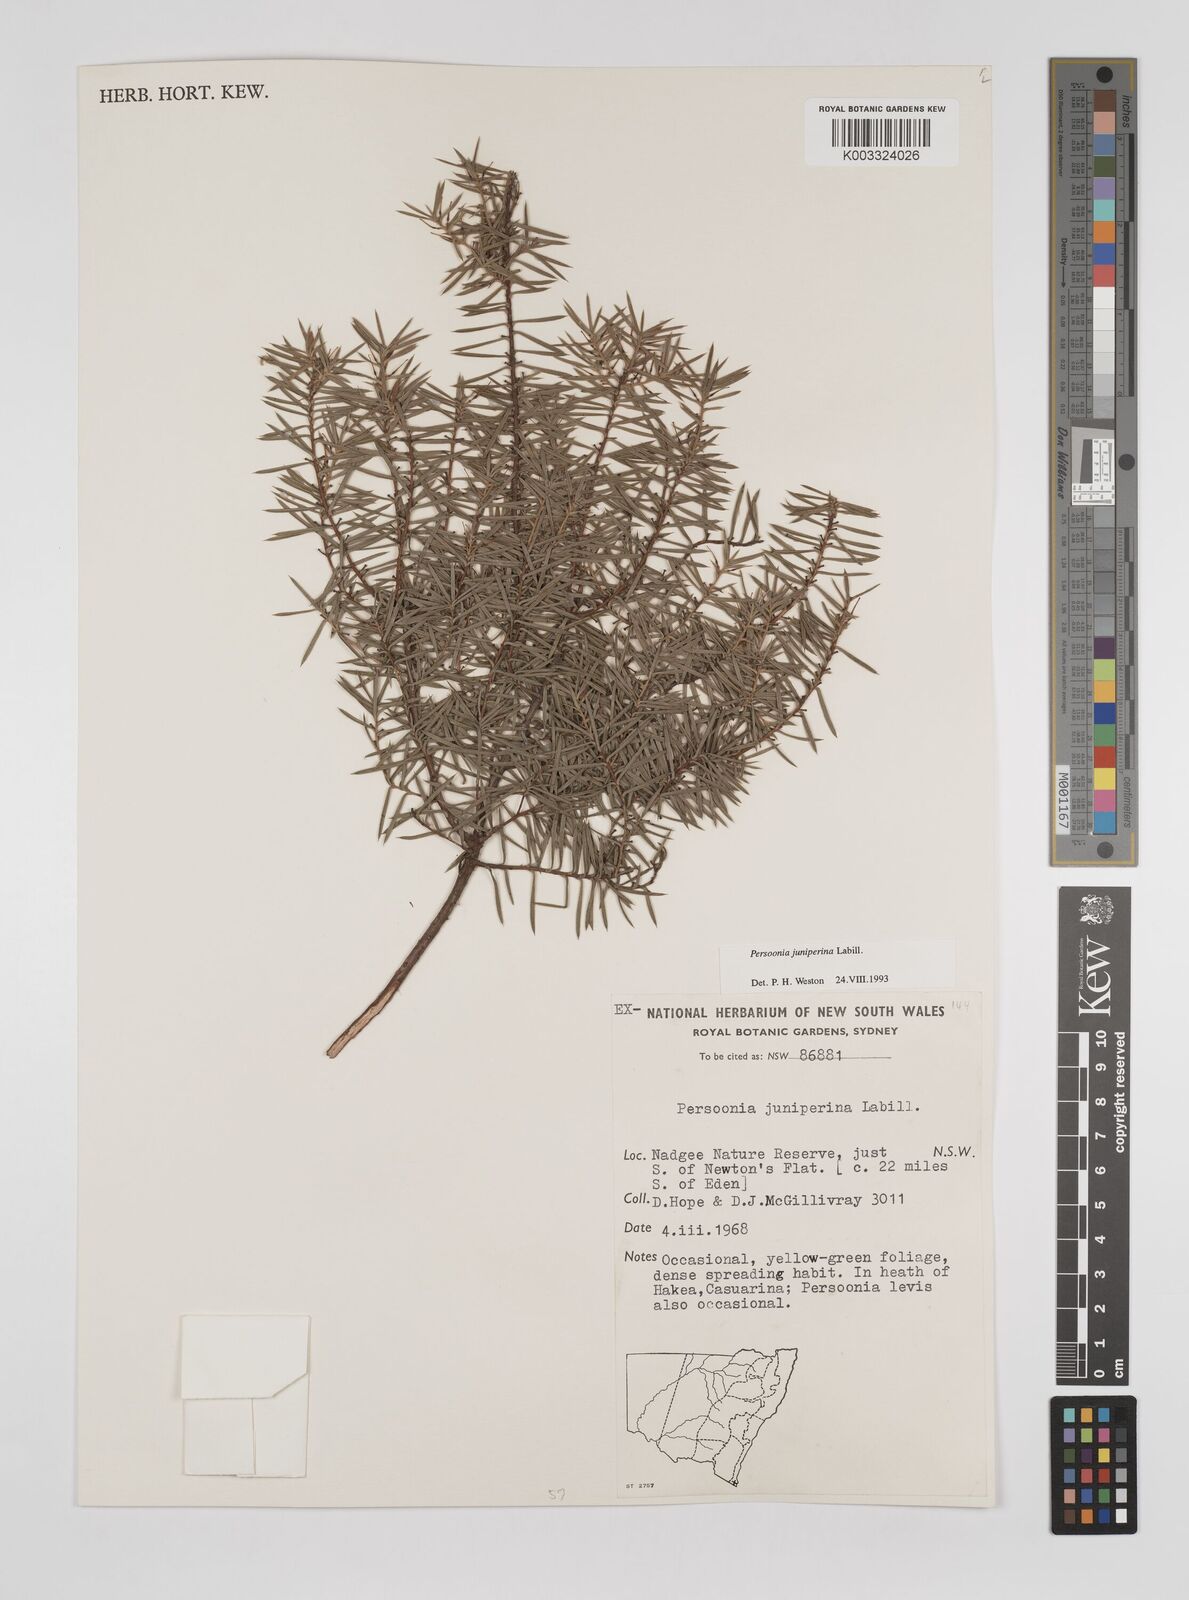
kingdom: Plantae
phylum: Tracheophyta
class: Magnoliopsida
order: Proteales
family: Proteaceae
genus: Persoonia
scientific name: Persoonia juniperina
